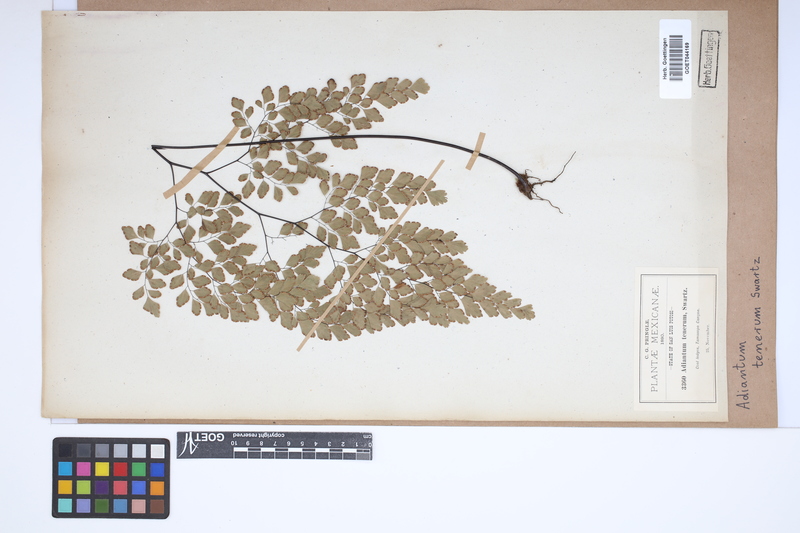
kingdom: Plantae
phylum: Tracheophyta
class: Polypodiopsida
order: Polypodiales
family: Pteridaceae
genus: Adiantum
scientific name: Adiantum tenerum
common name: Fan maidenhair
